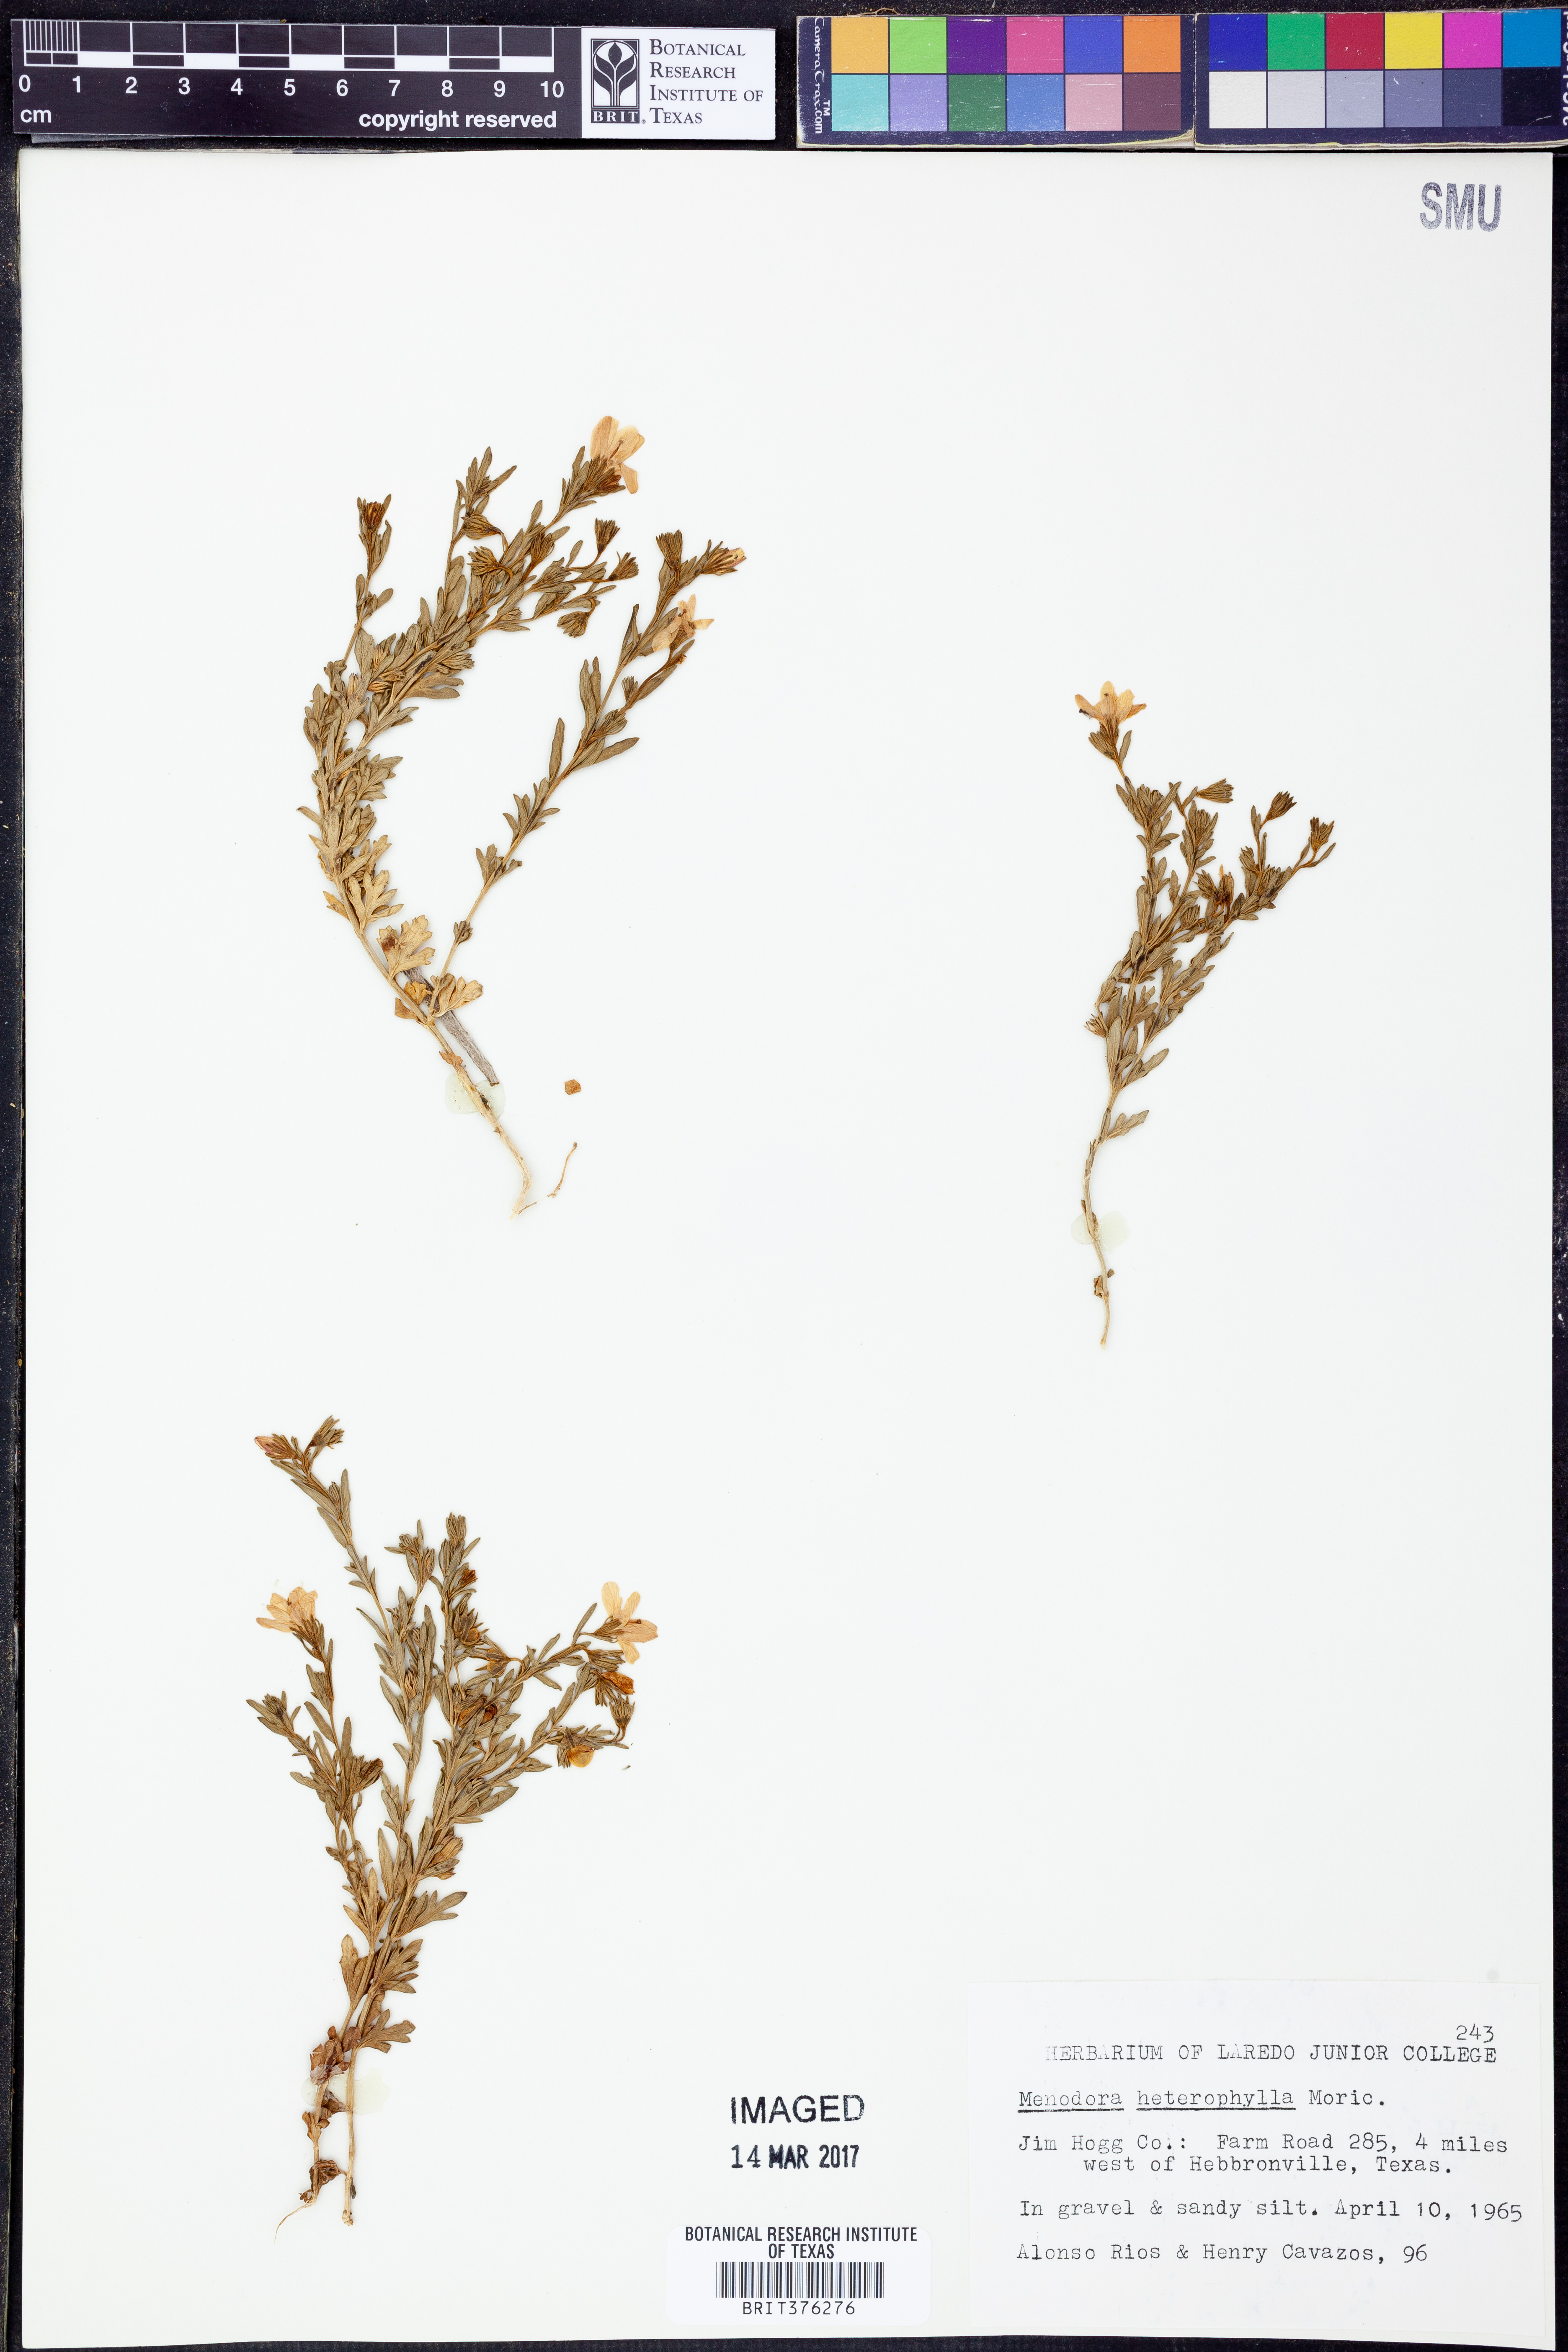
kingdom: Plantae
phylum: Tracheophyta
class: Magnoliopsida
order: Lamiales
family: Oleaceae
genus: Menodora
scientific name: Menodora heterophylla
